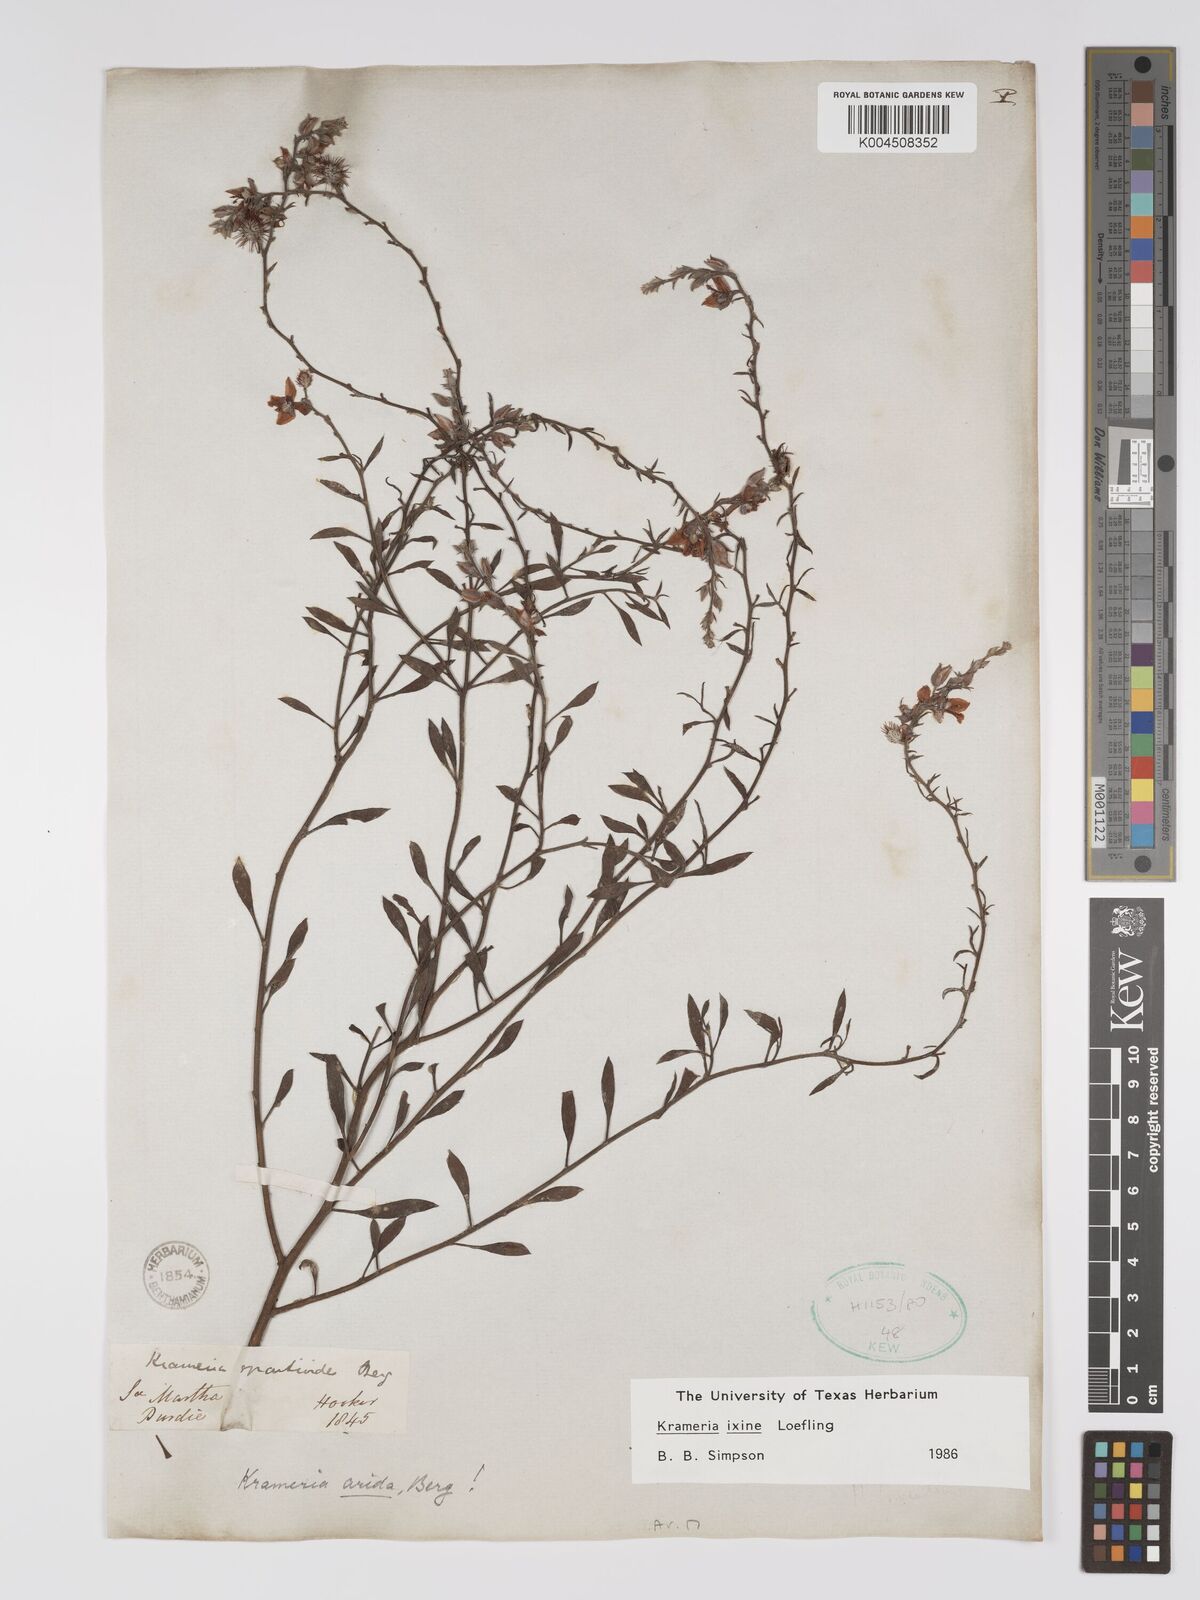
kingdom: Plantae
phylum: Tracheophyta
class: Magnoliopsida
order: Zygophyllales
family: Krameriaceae
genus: Krameria
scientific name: Krameria ixine
